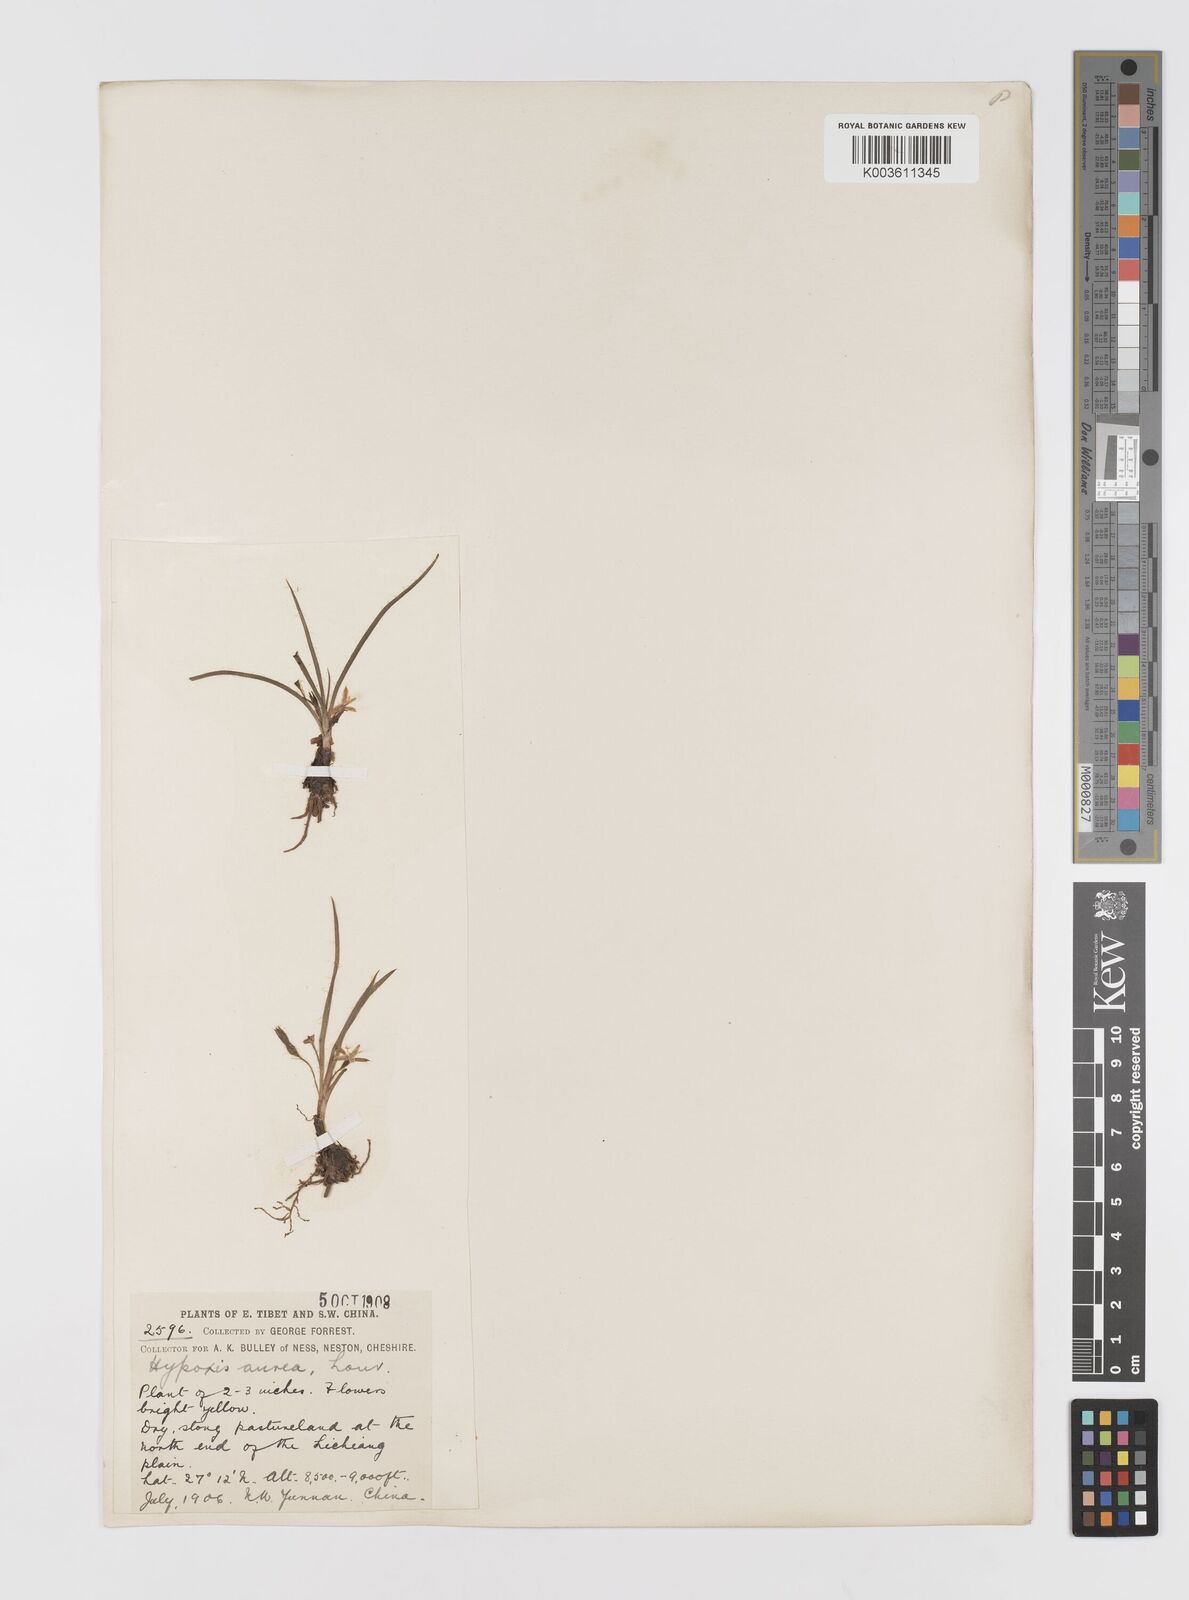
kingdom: Plantae
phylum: Tracheophyta
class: Liliopsida
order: Asparagales
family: Hypoxidaceae
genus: Hypoxis
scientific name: Hypoxis aurea
